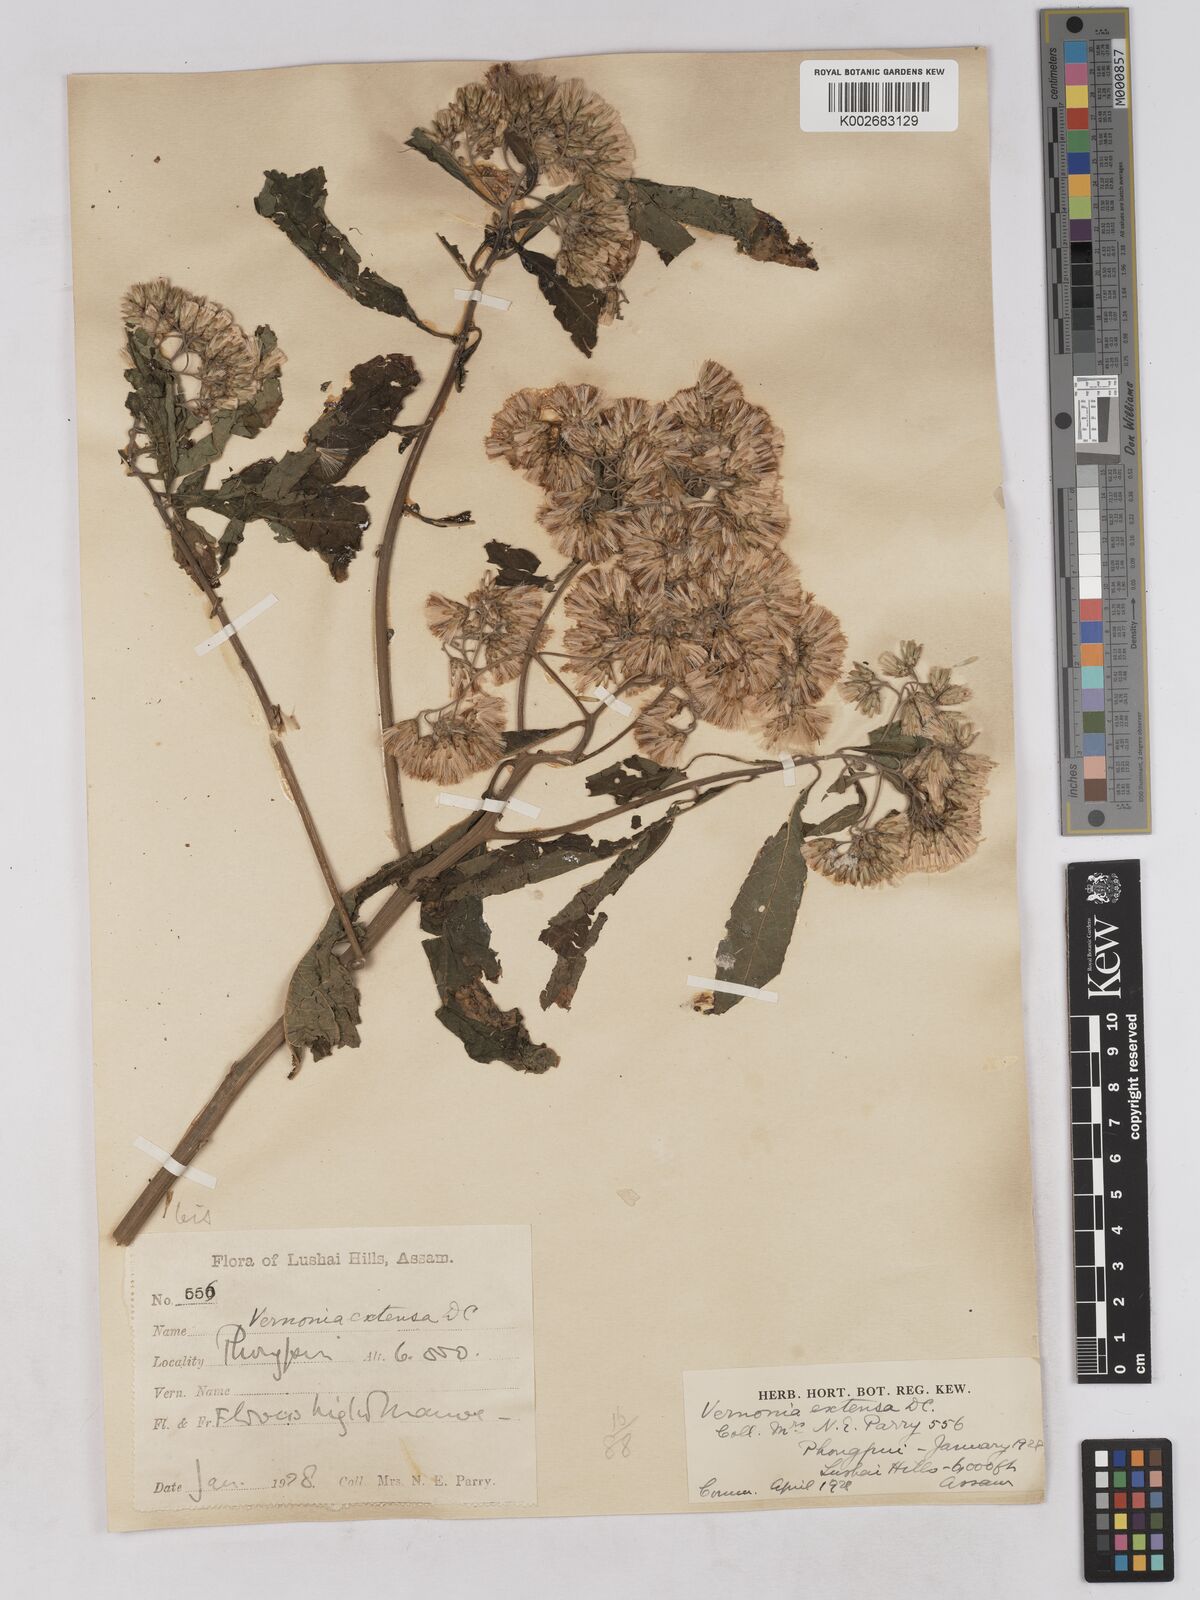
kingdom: Plantae
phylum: Tracheophyta
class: Magnoliopsida
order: Asterales
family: Asteraceae
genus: Gymnanthemum
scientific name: Gymnanthemum extensum
